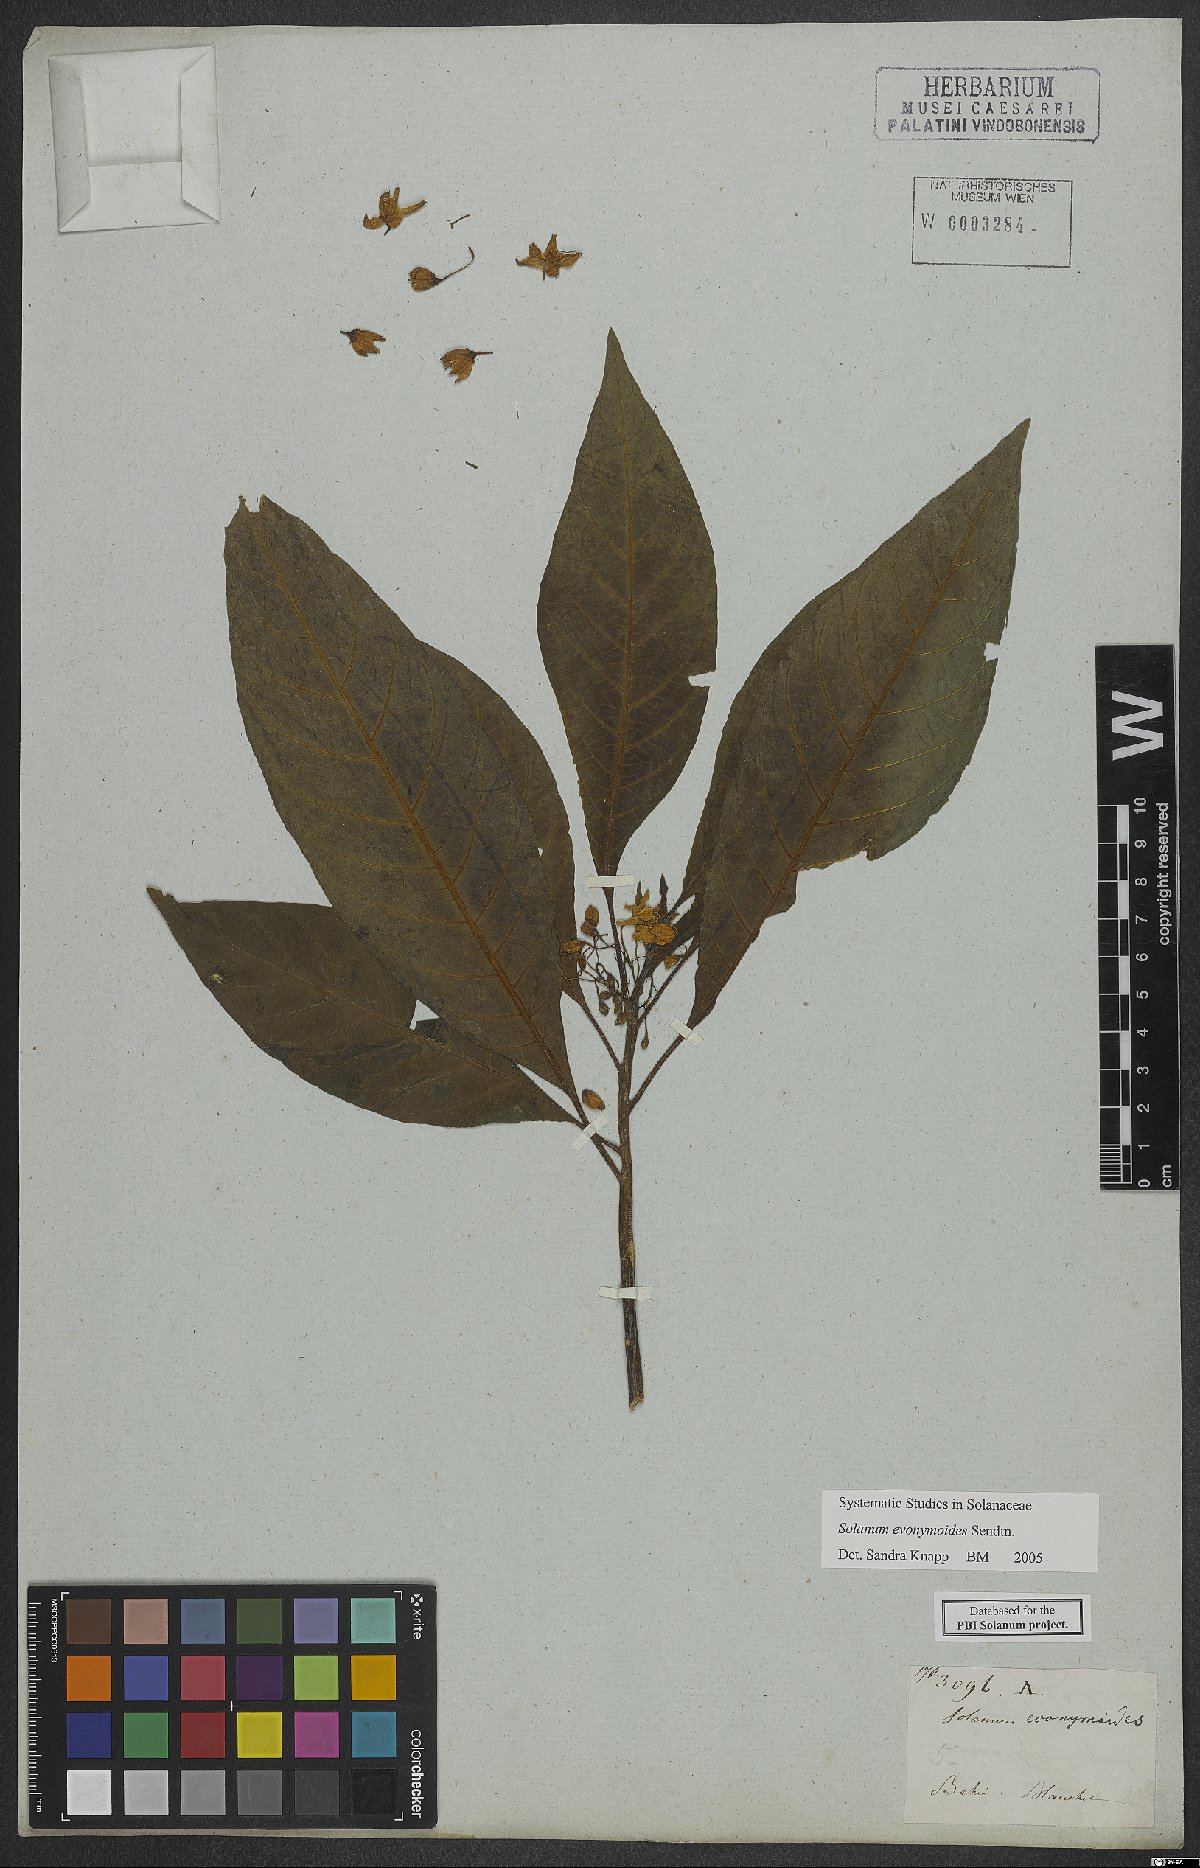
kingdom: Plantae
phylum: Tracheophyta
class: Magnoliopsida
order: Solanales
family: Solanaceae
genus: Solanum
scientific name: Solanum evonymoides
